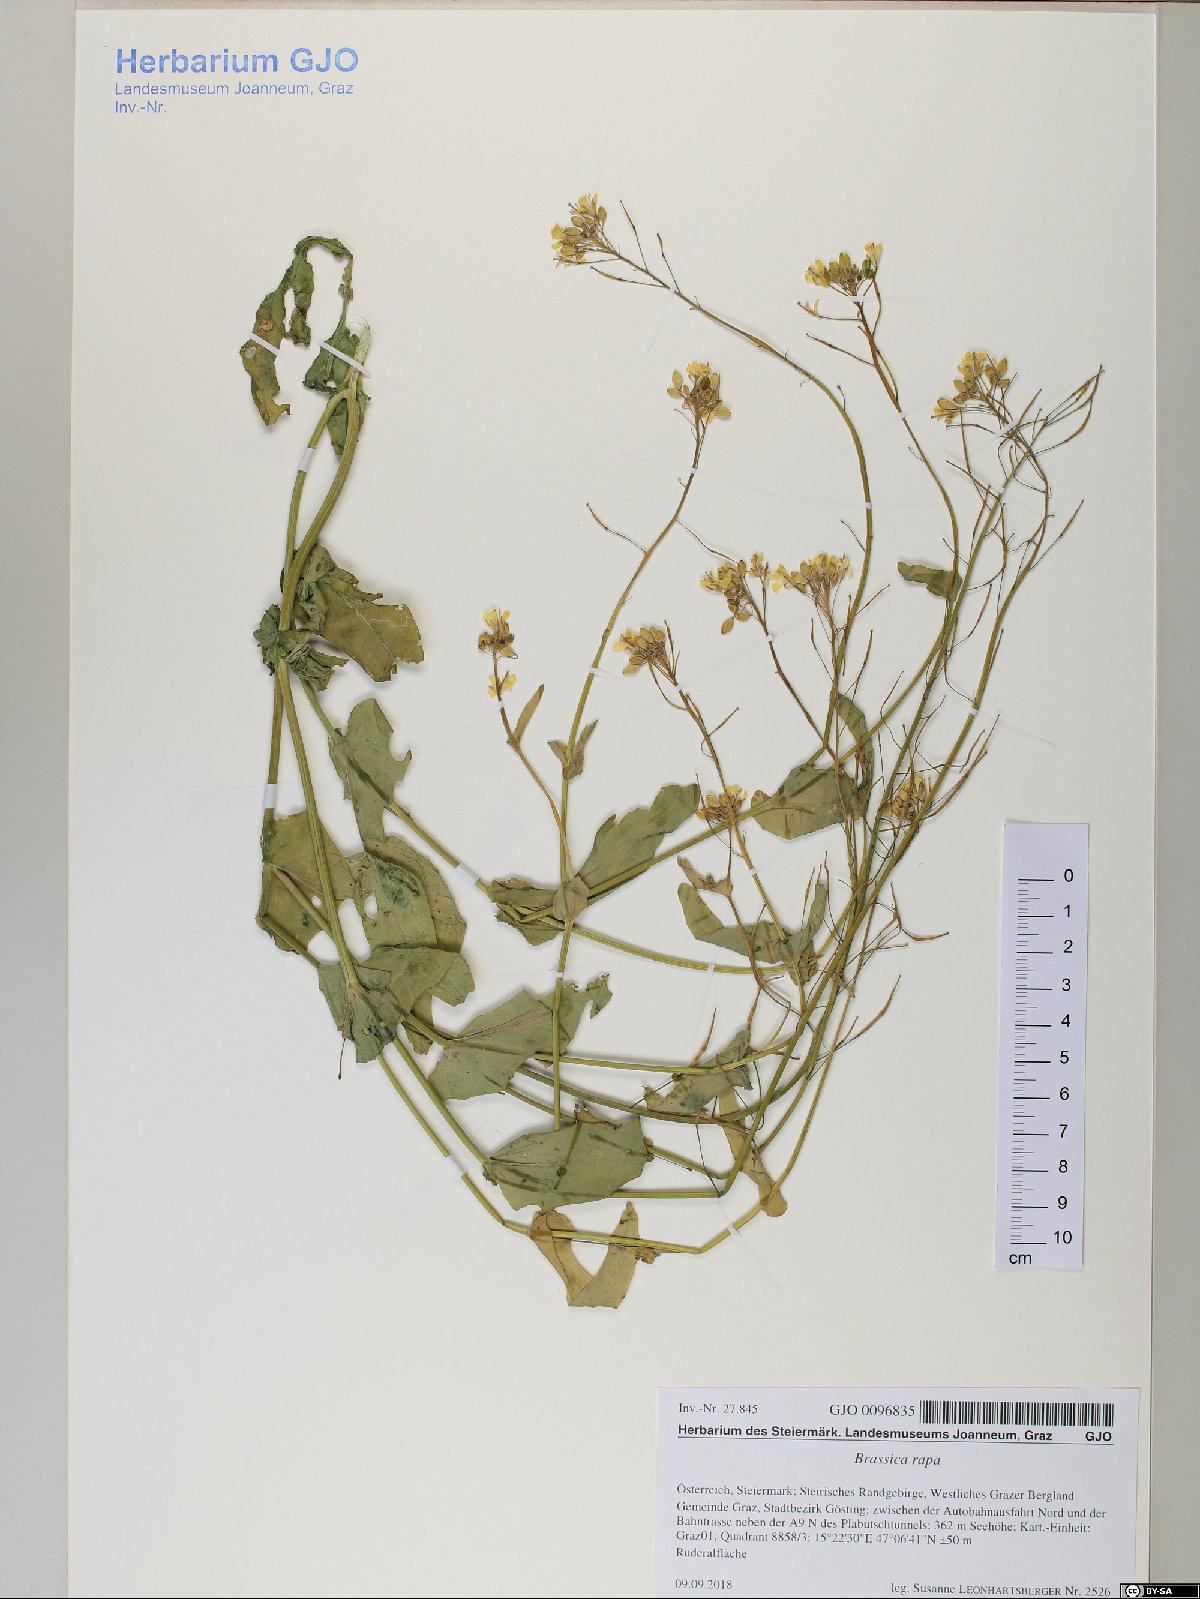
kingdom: Plantae
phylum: Tracheophyta
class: Magnoliopsida
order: Brassicales
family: Brassicaceae
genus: Brassica
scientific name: Brassica rapa
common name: Field mustard
